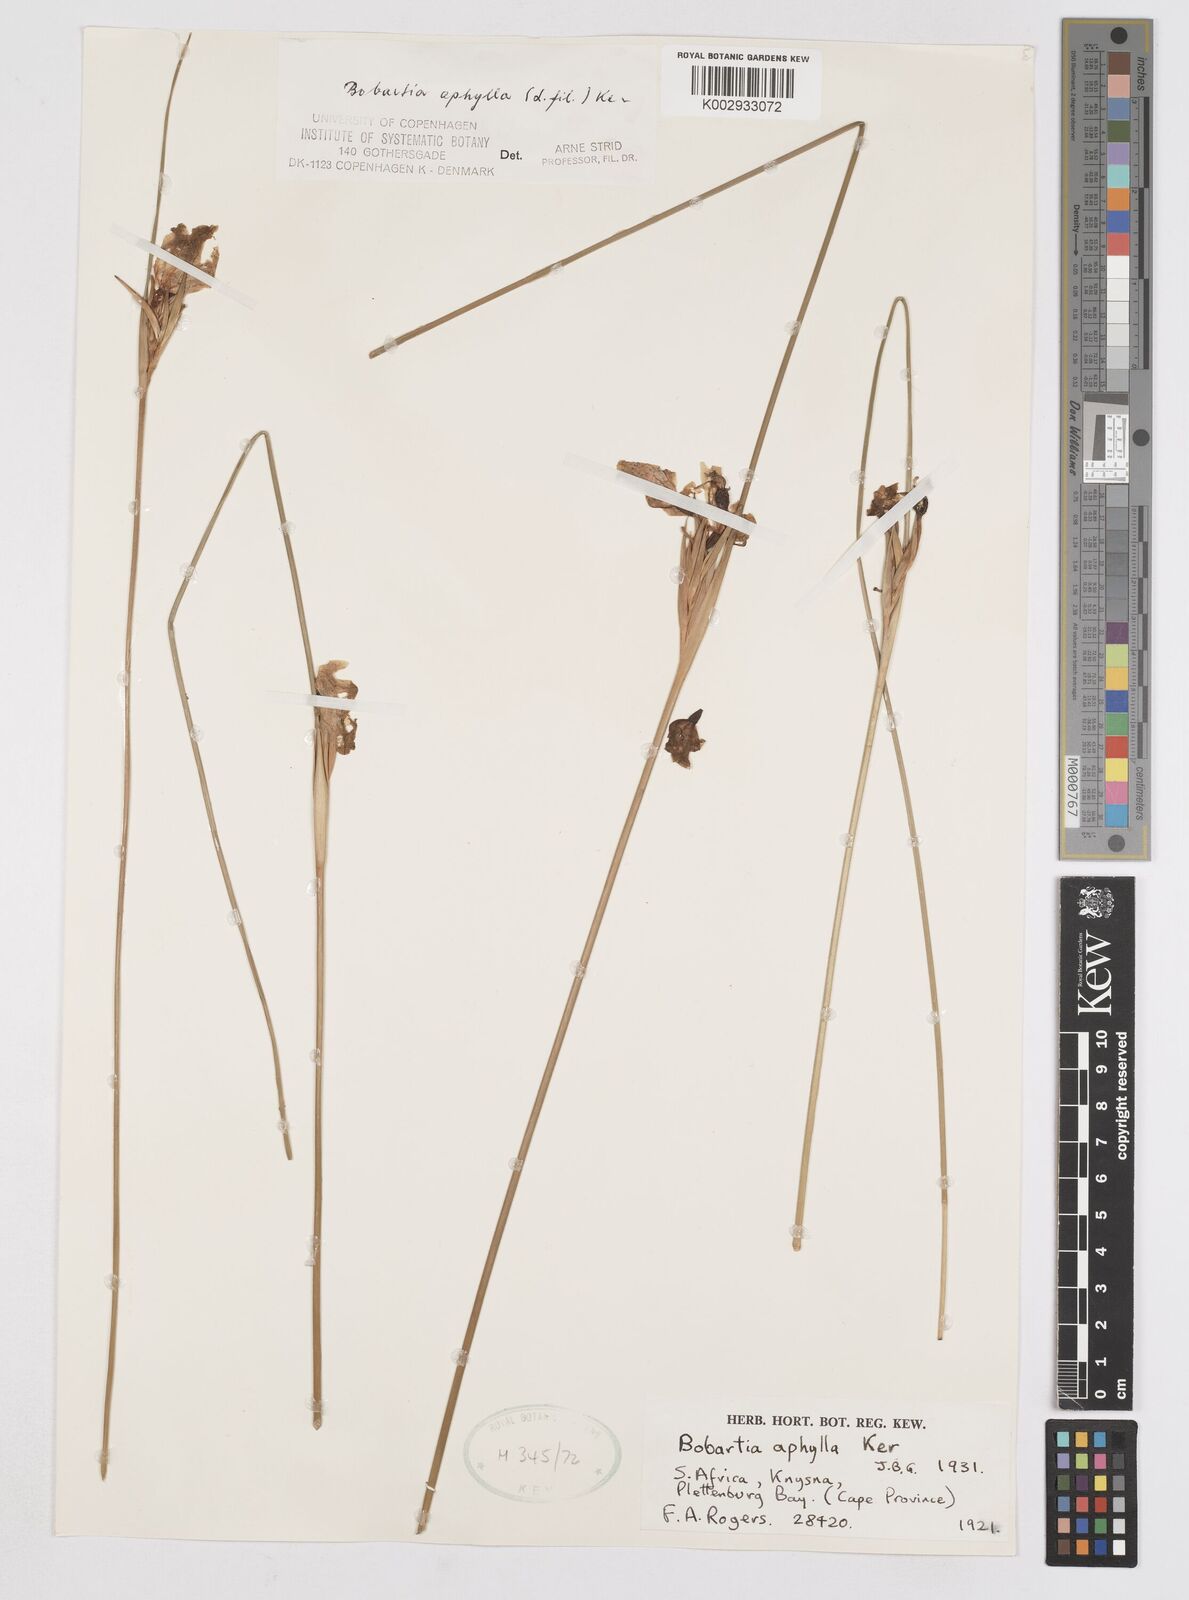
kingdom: Plantae
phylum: Tracheophyta
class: Liliopsida
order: Asparagales
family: Iridaceae
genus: Bobartia
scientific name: Bobartia aphylla
